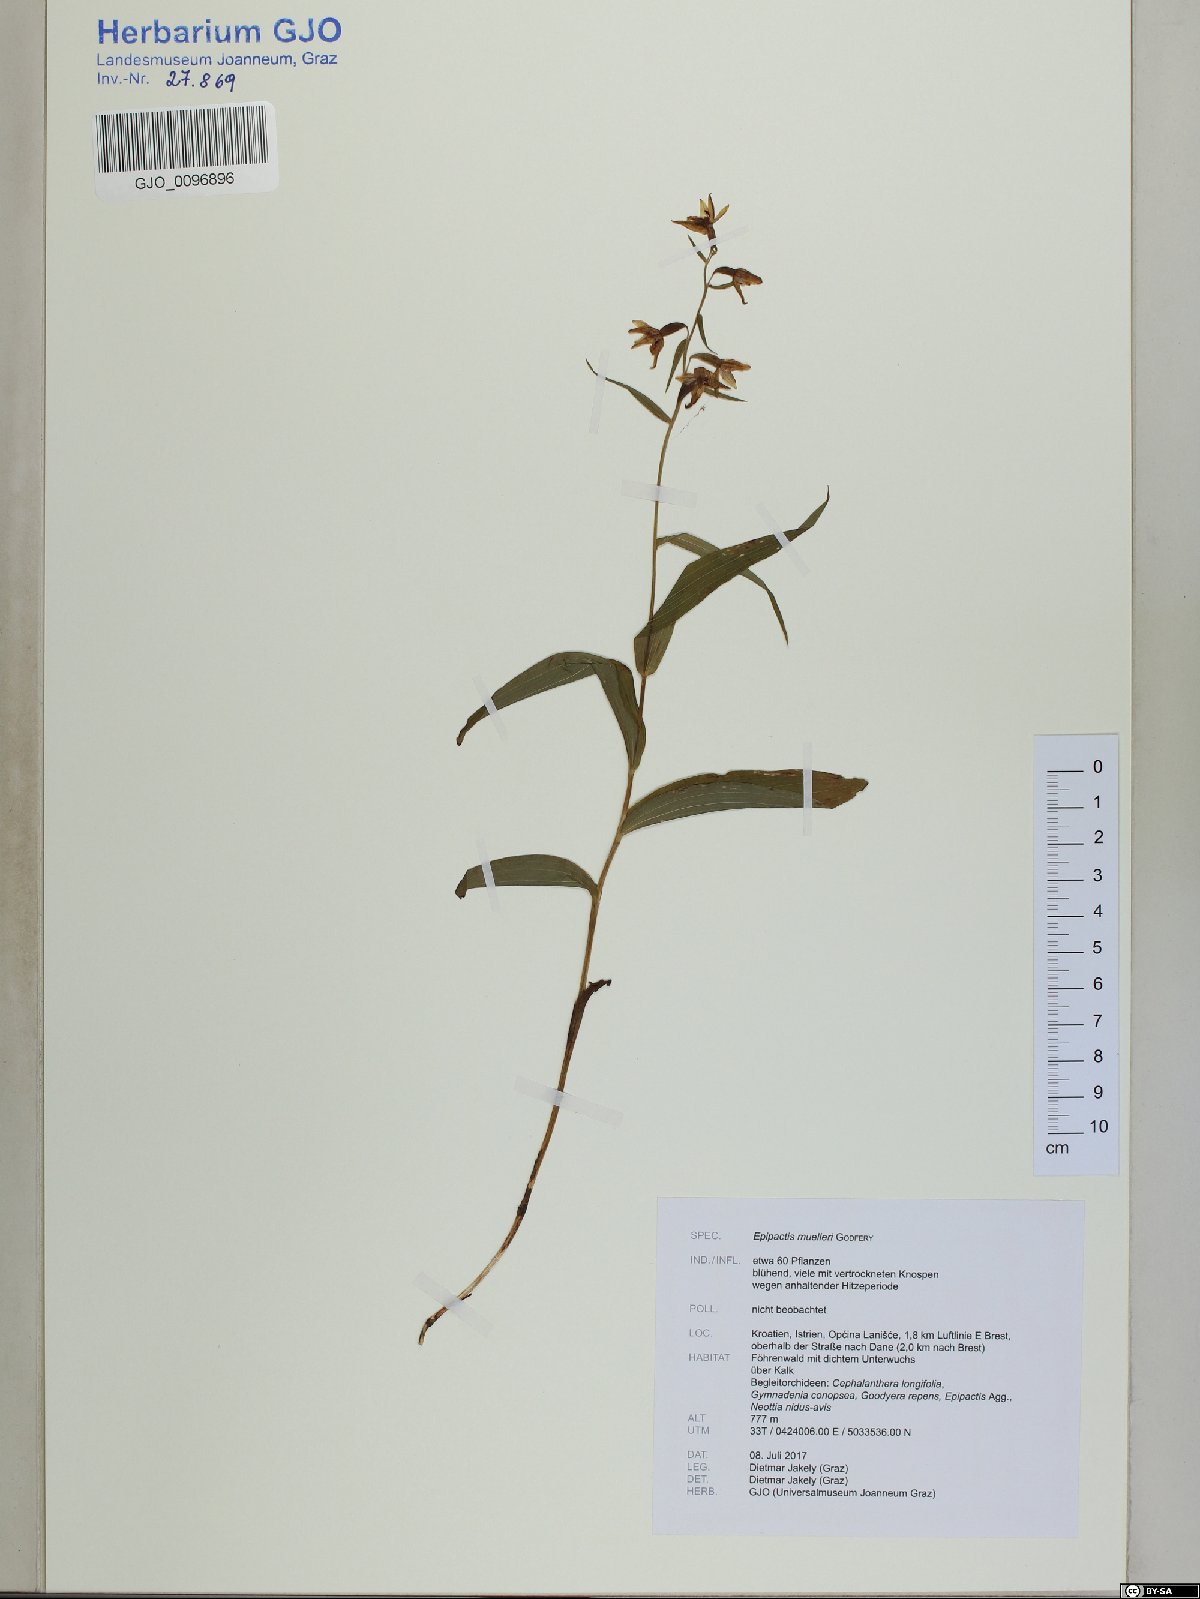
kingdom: Plantae
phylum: Tracheophyta
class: Liliopsida
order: Asparagales
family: Orchidaceae
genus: Epipactis
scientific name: Epipactis muelleri
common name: Mueller's epipactis
